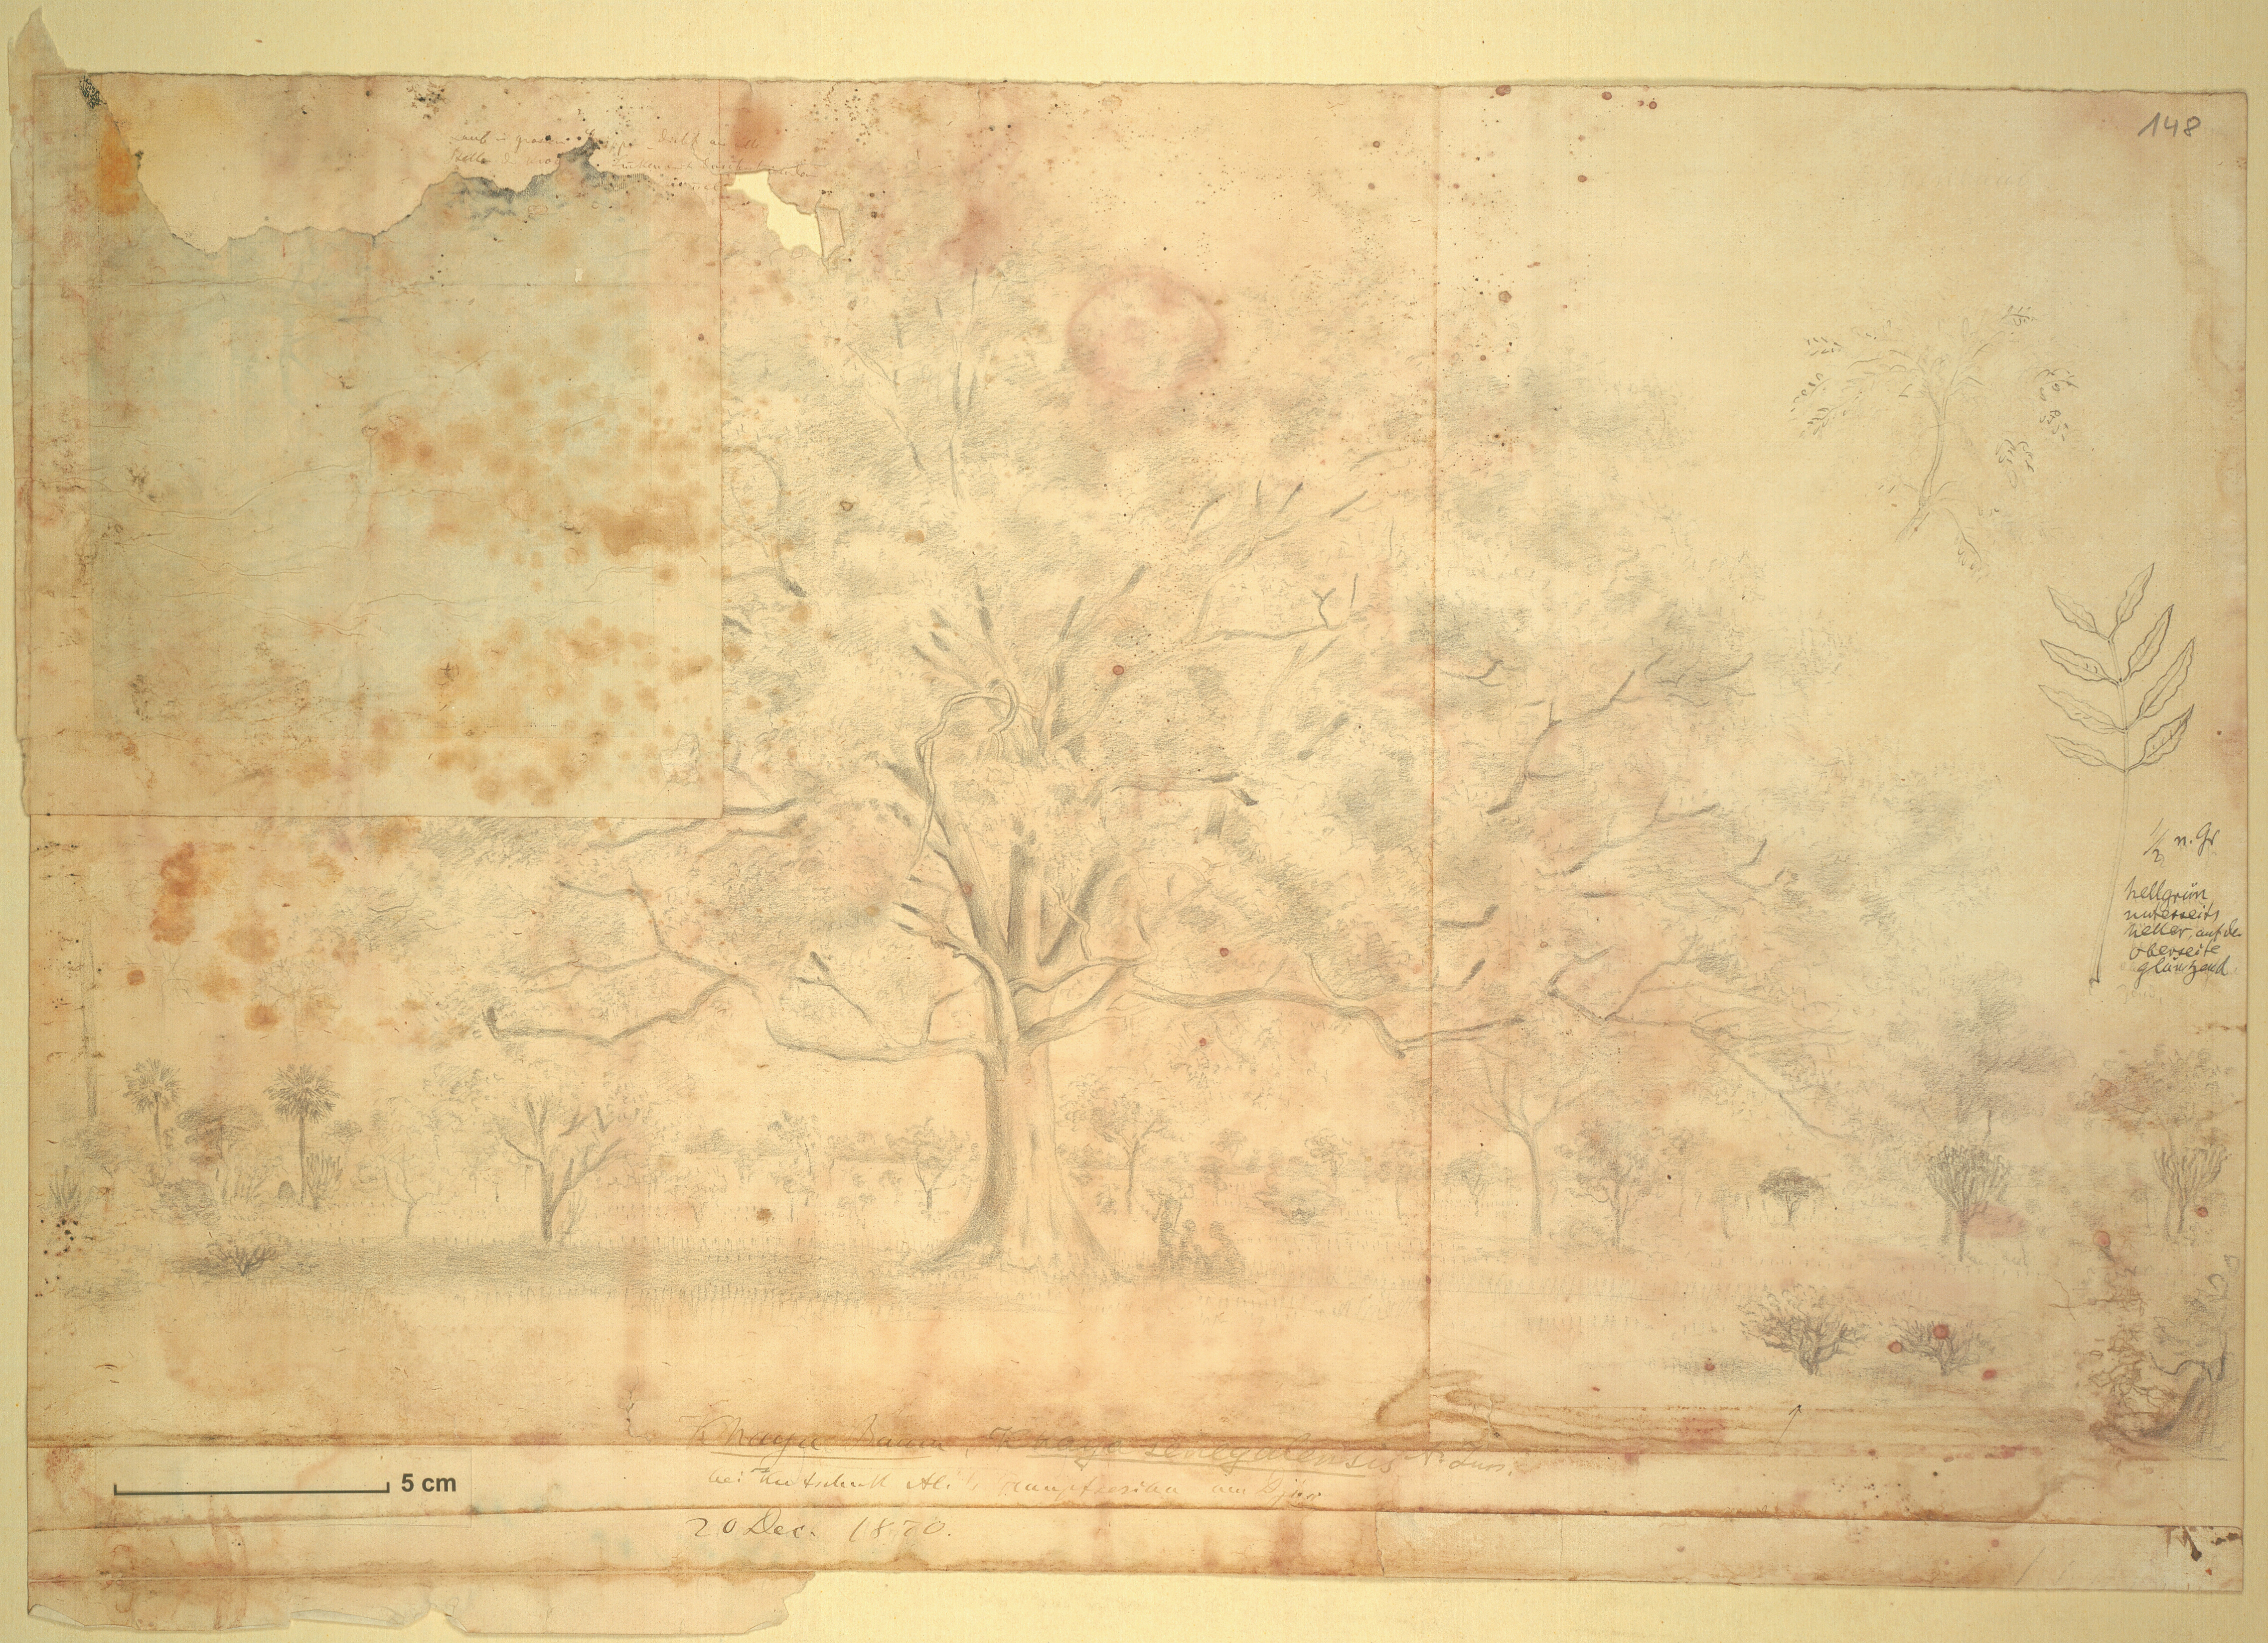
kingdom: Plantae
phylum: Tracheophyta
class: Magnoliopsida
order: Sapindales
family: Meliaceae
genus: Khaya
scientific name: Khaya senegalensis
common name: Senegal mahogany
